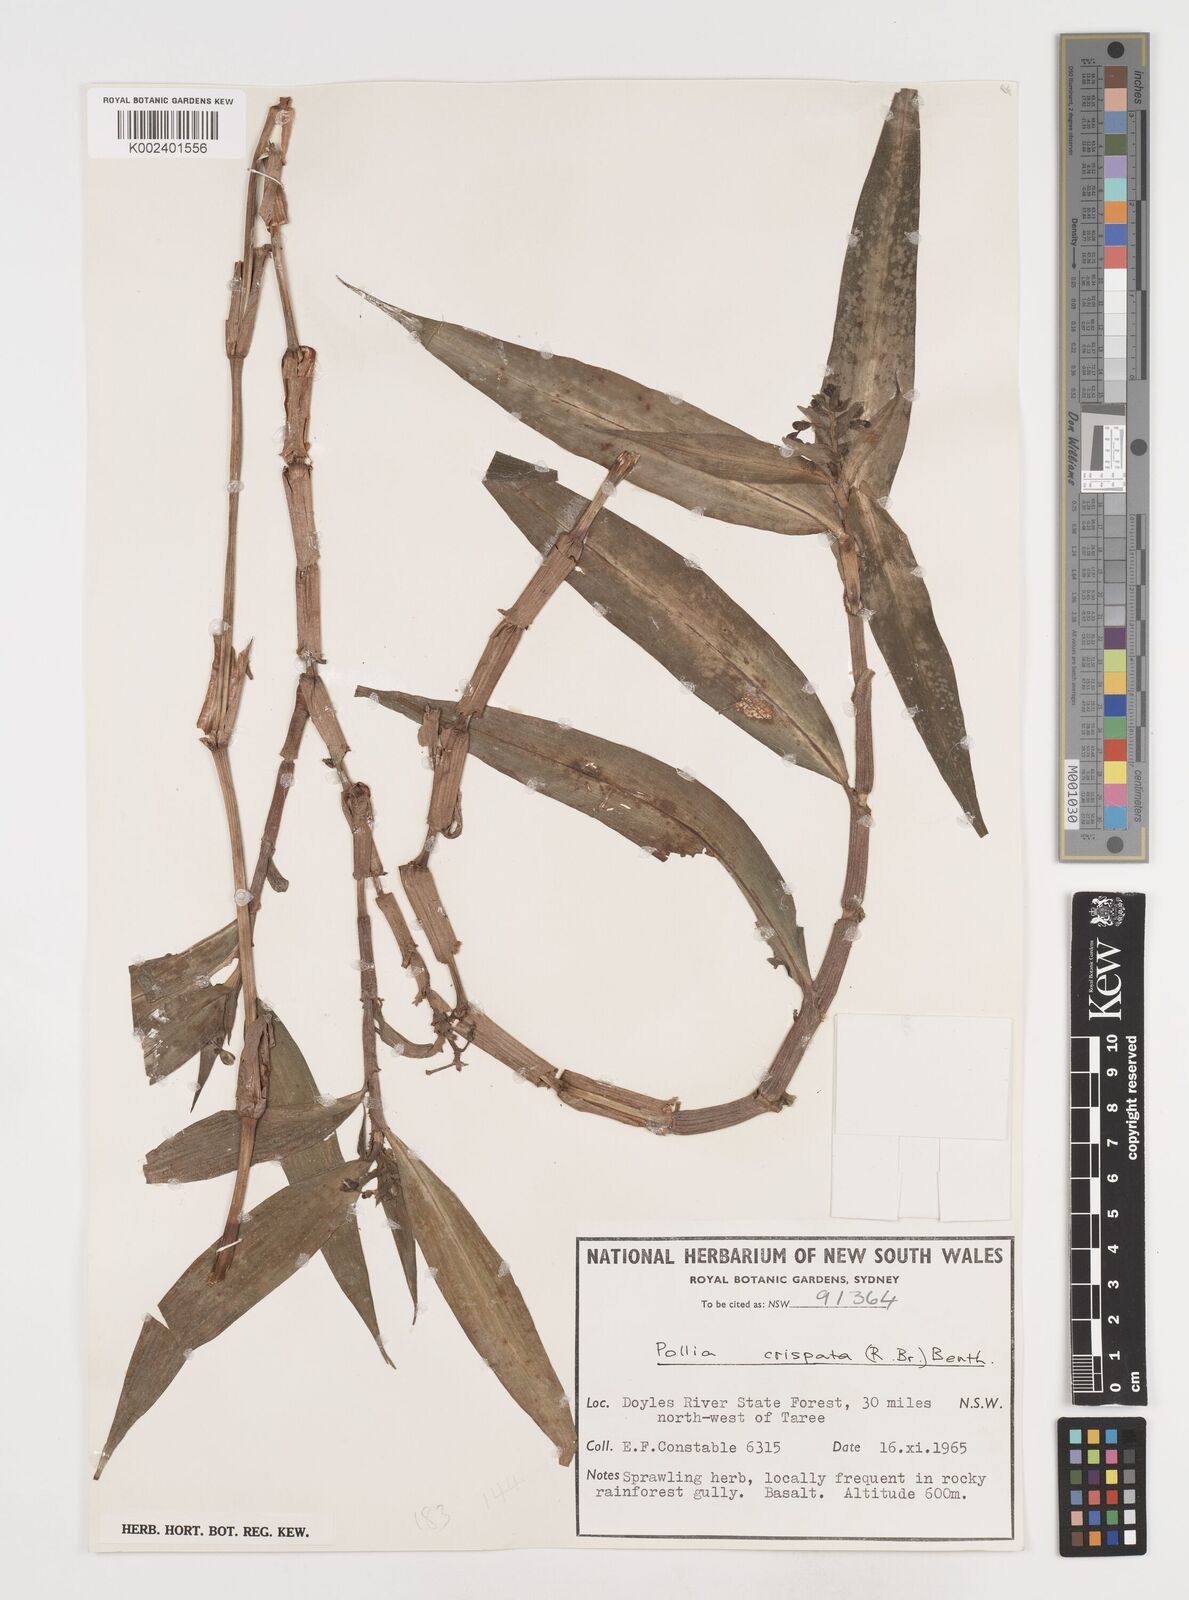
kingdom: Plantae
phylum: Tracheophyta
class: Liliopsida
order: Commelinales
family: Commelinaceae
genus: Pollia
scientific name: Pollia crispata
